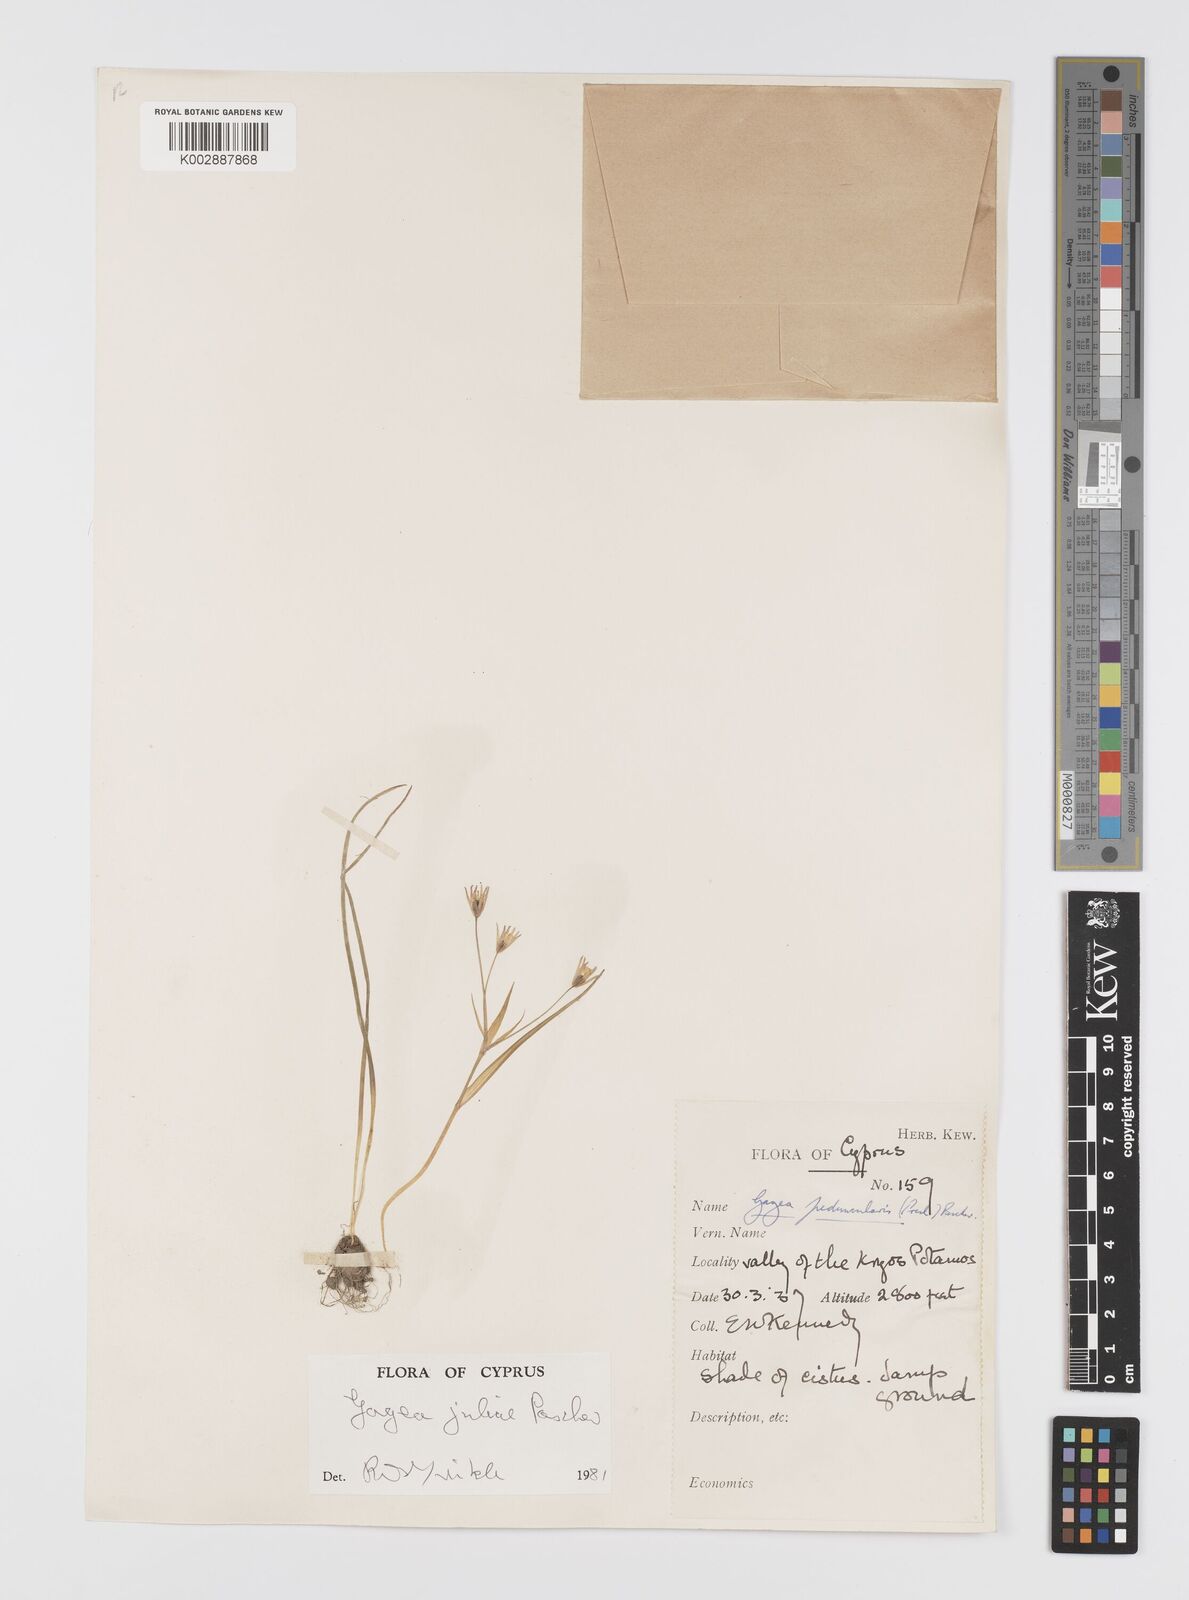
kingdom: Plantae
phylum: Tracheophyta
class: Liliopsida
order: Liliales
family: Liliaceae
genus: Gagea
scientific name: Gagea juliae
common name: Julia’s gagea
